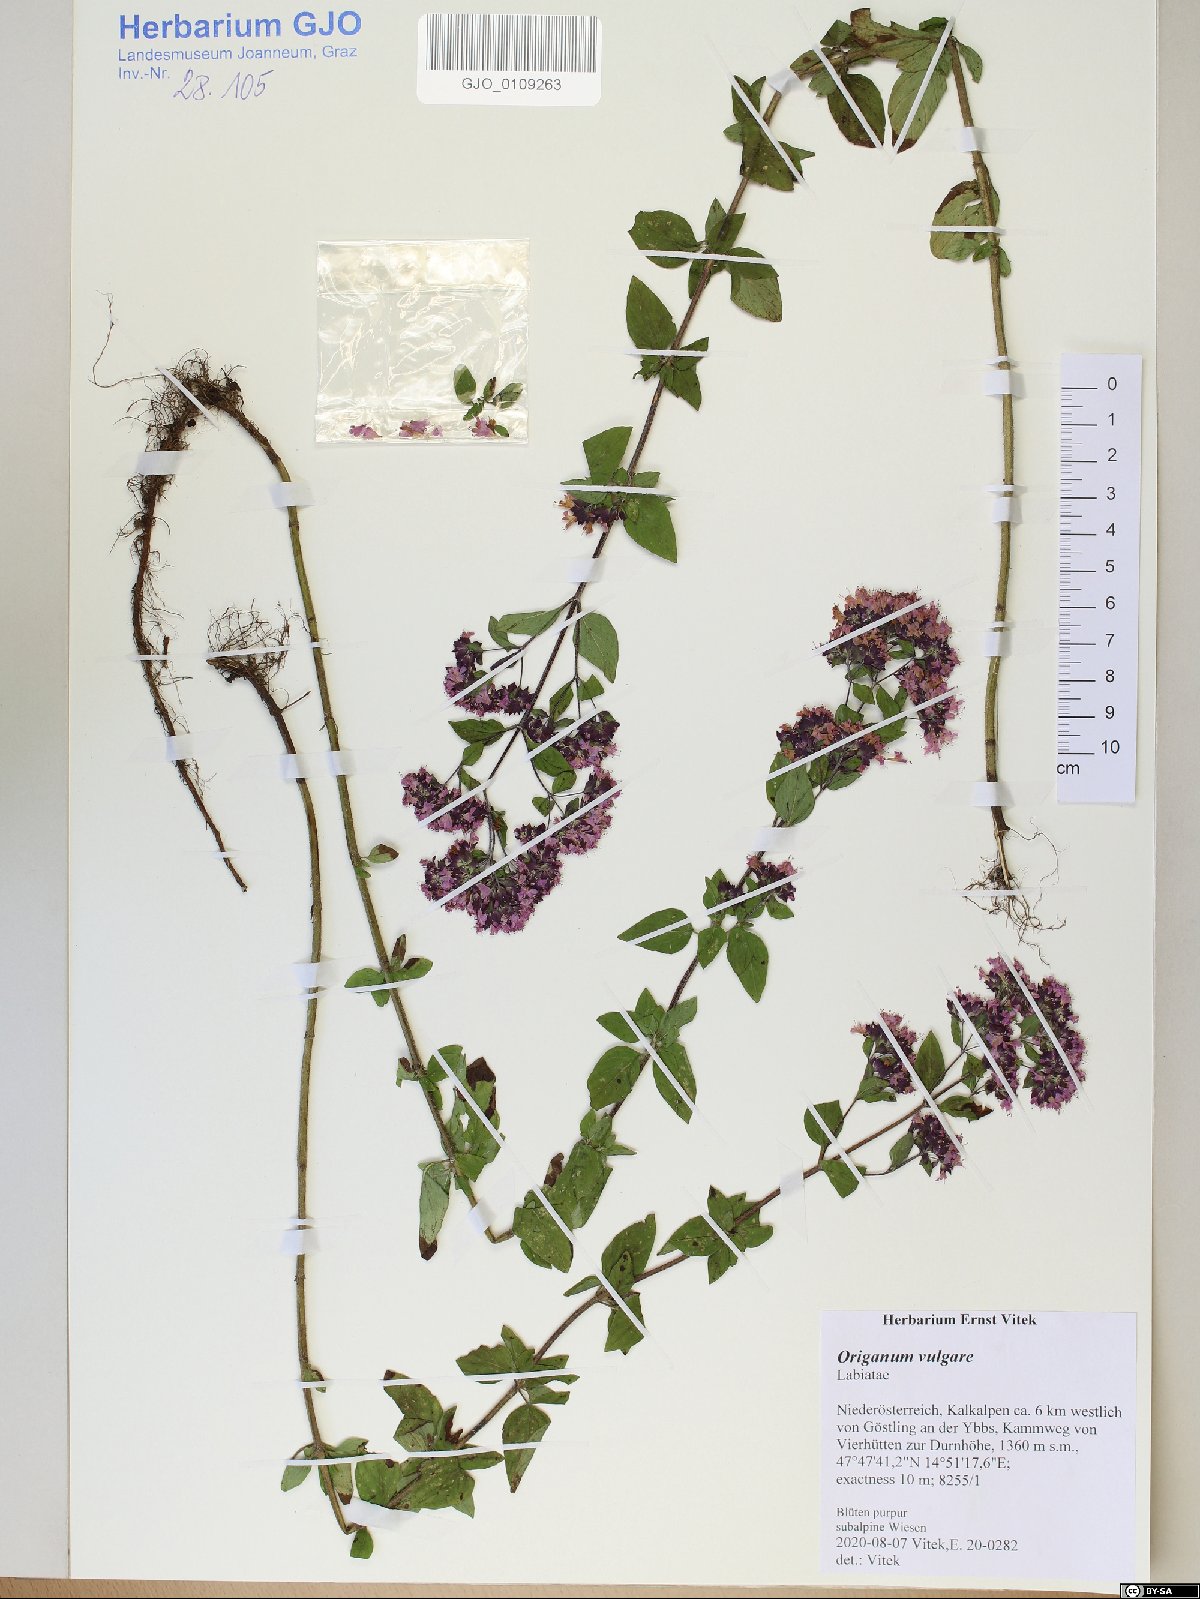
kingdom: Plantae
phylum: Tracheophyta
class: Magnoliopsida
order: Lamiales
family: Lamiaceae
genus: Origanum
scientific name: Origanum vulgare
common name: Wild marjoram
